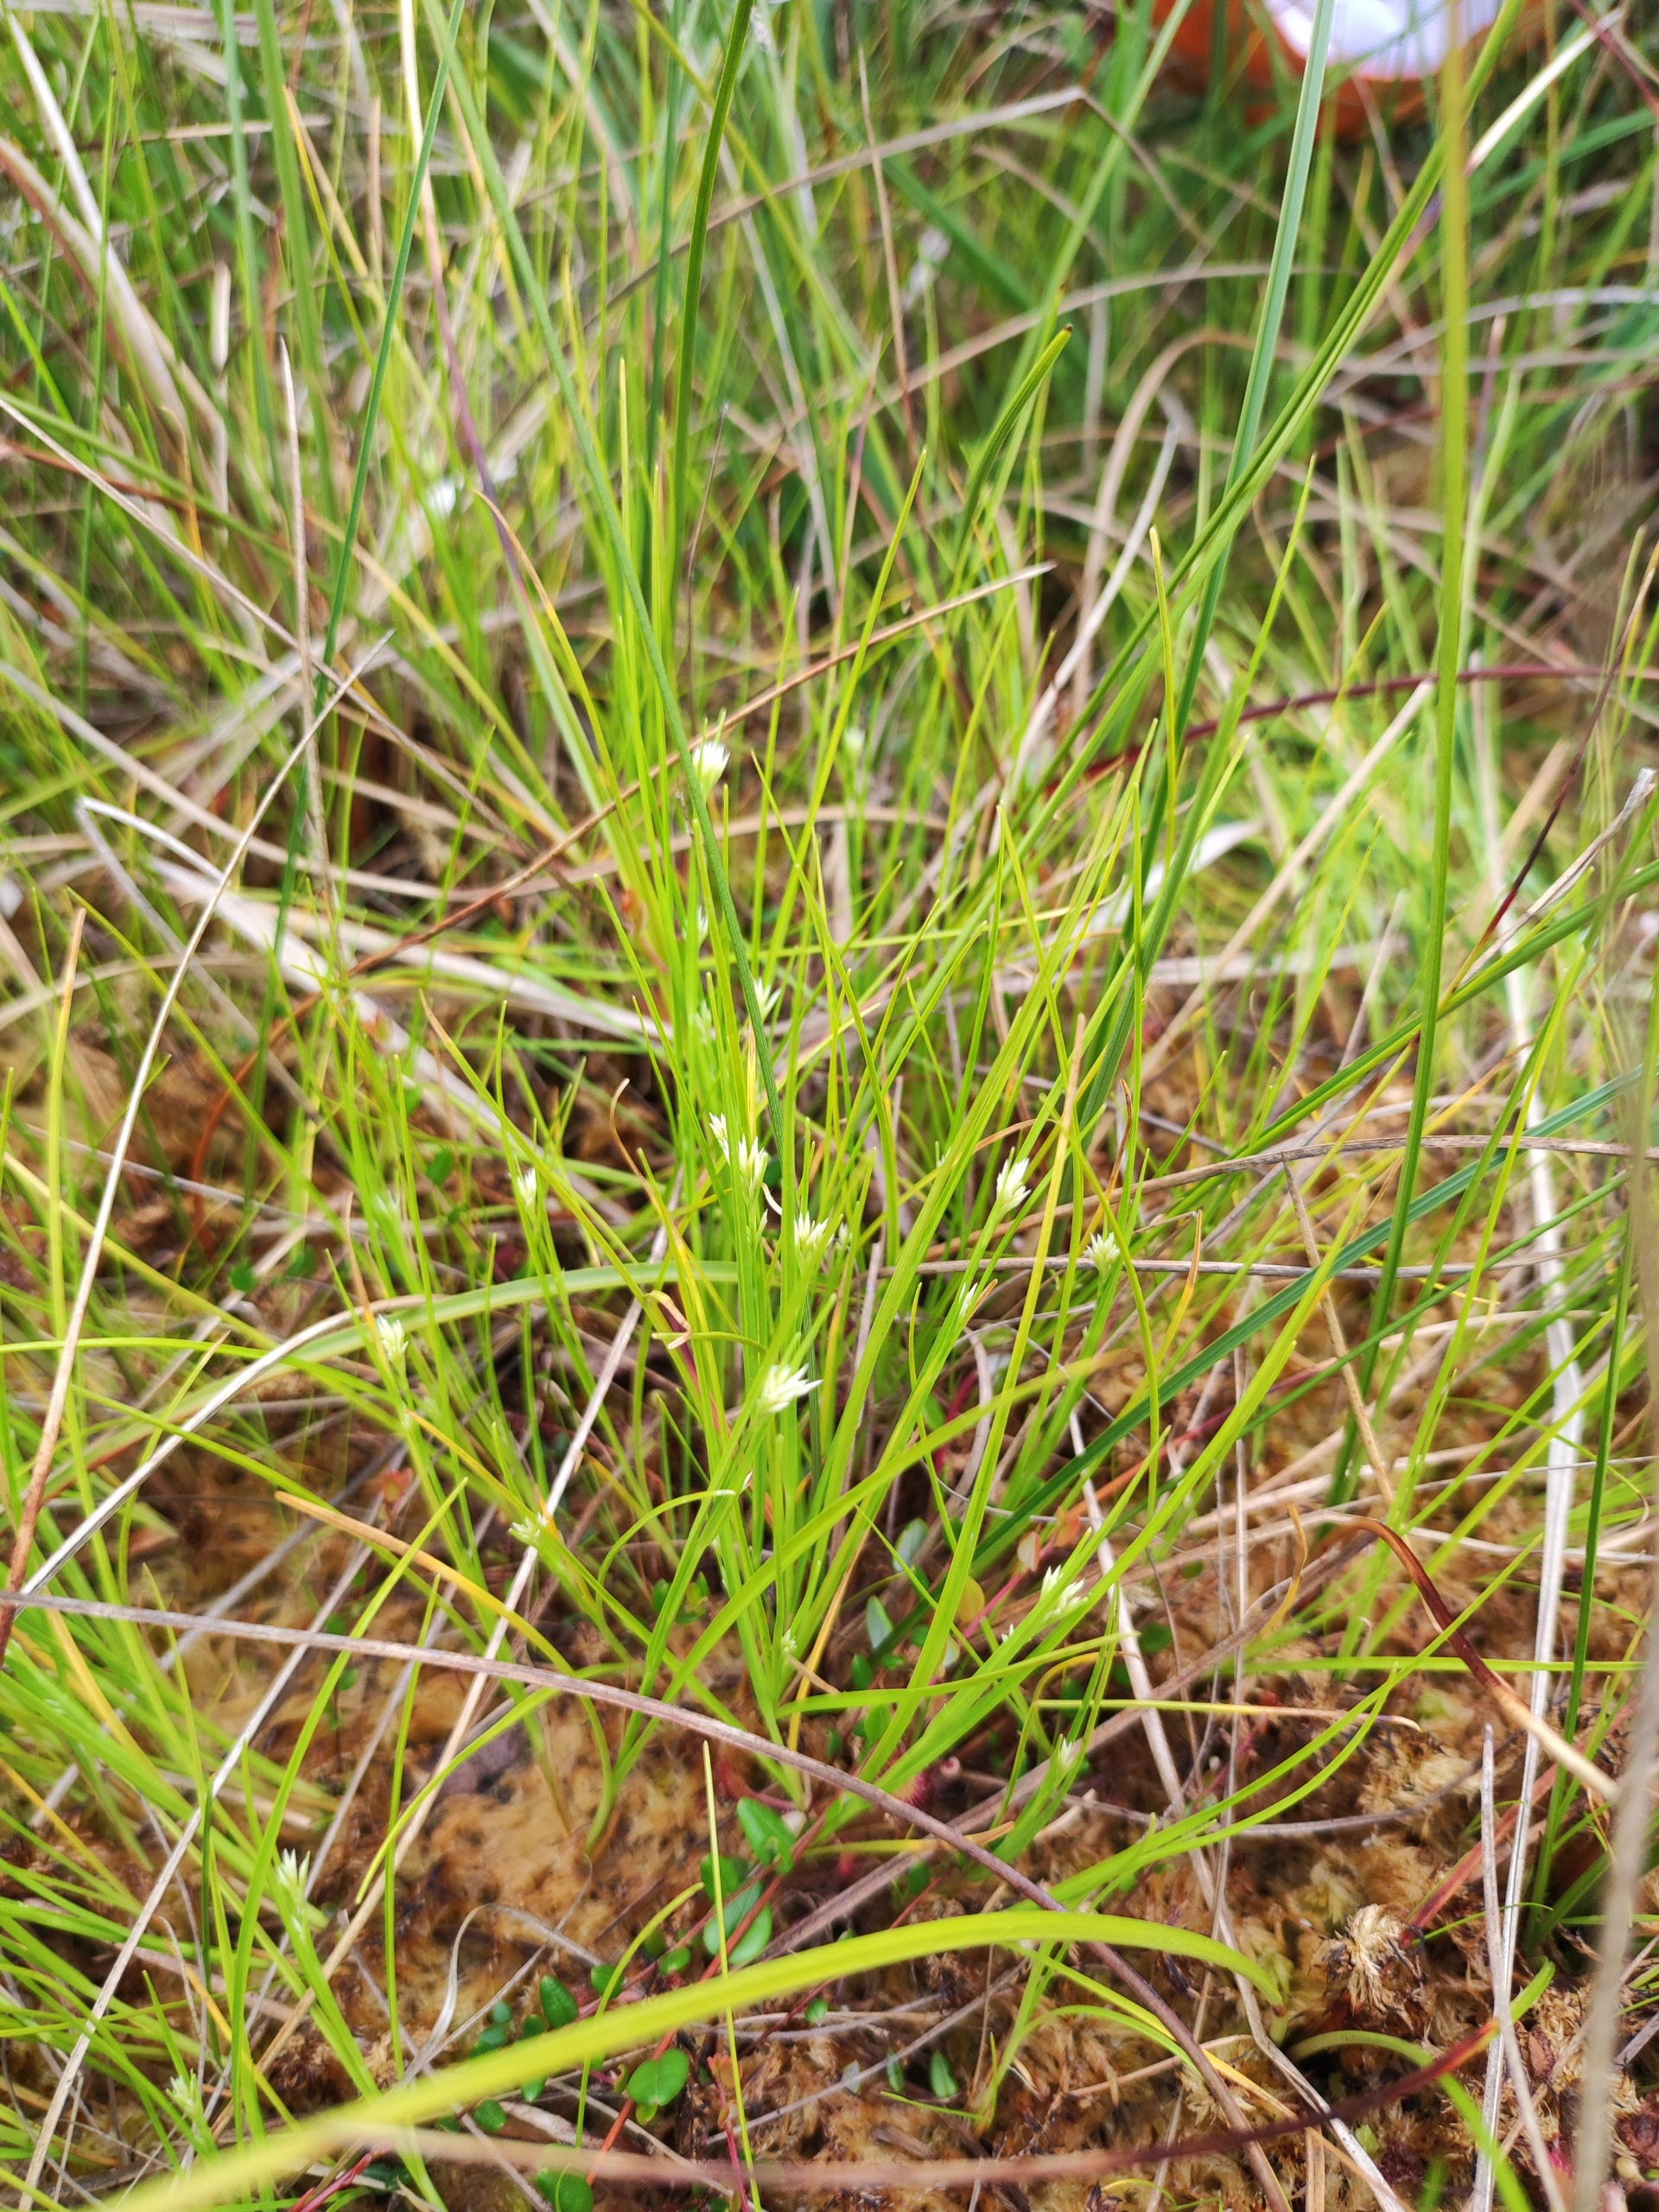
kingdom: Plantae
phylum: Tracheophyta
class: Liliopsida
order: Poales
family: Cyperaceae
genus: Rhynchospora
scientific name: Rhynchospora alba
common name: Hvid næbfrø
